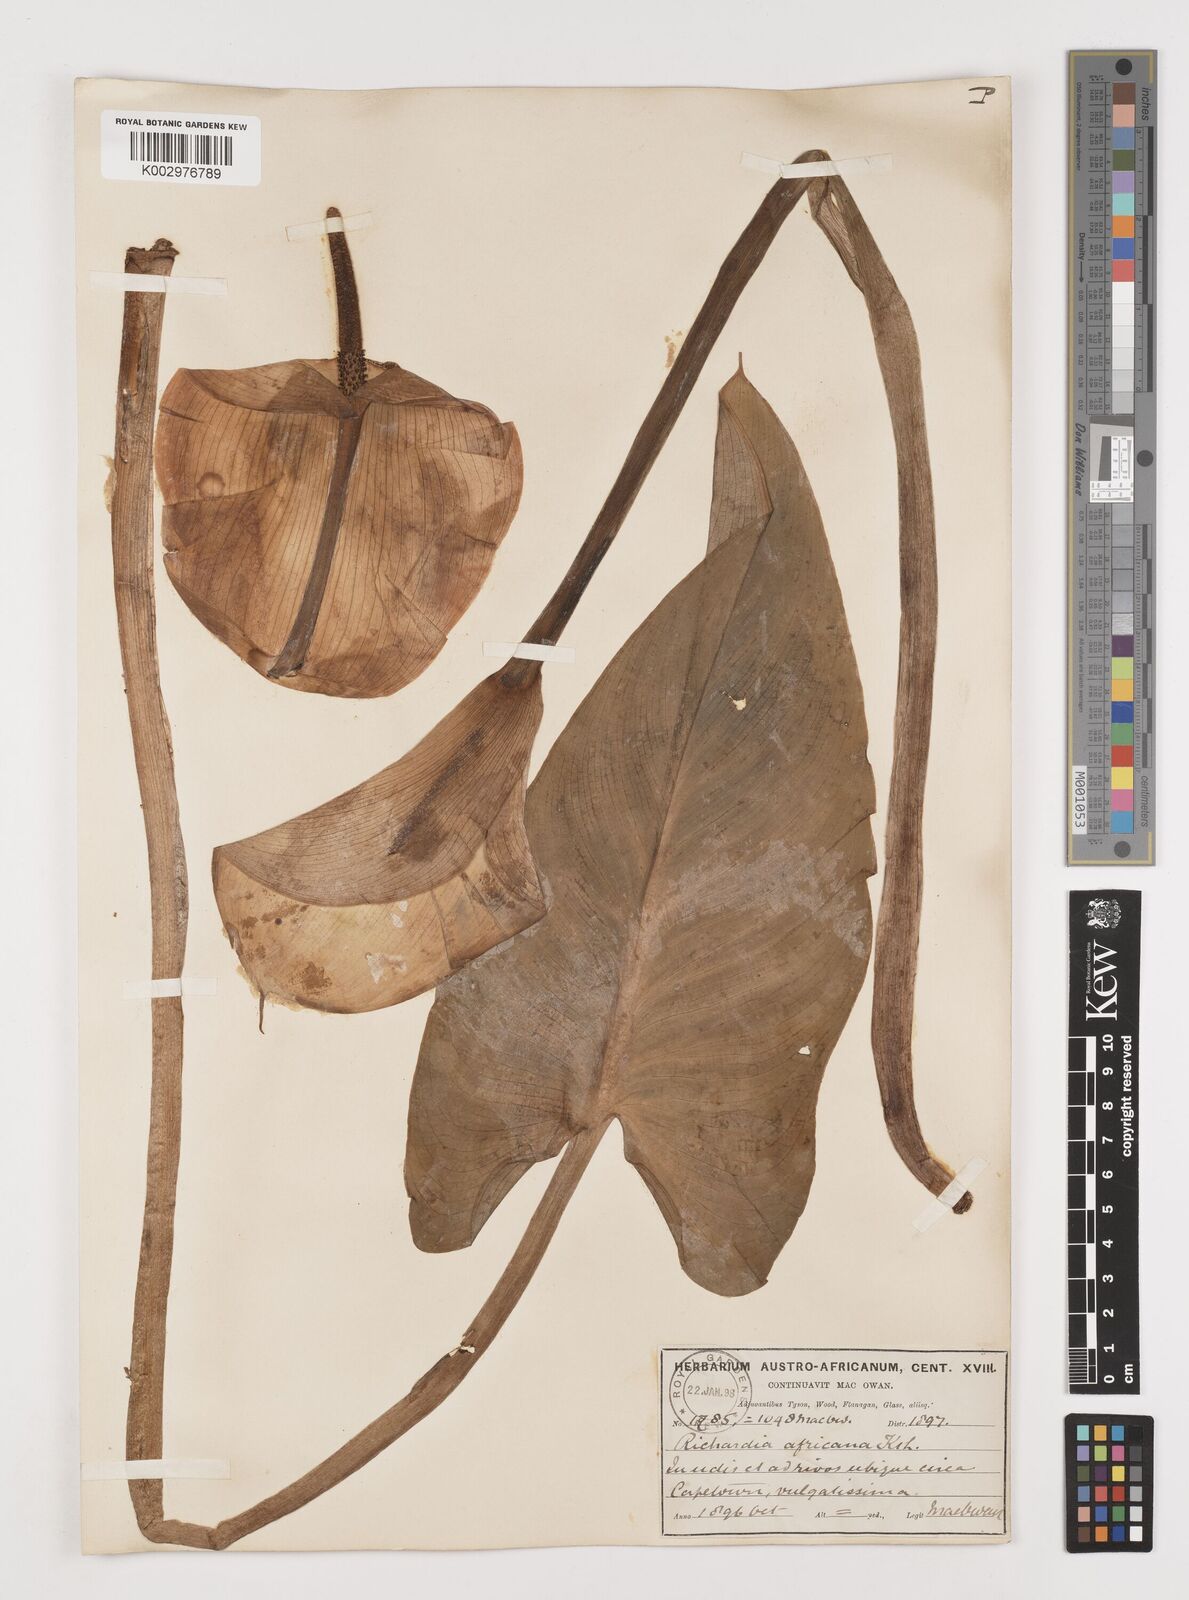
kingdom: Plantae
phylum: Tracheophyta
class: Liliopsida
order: Alismatales
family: Araceae
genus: Zantedeschia
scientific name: Zantedeschia aethiopica
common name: Altar-lily
